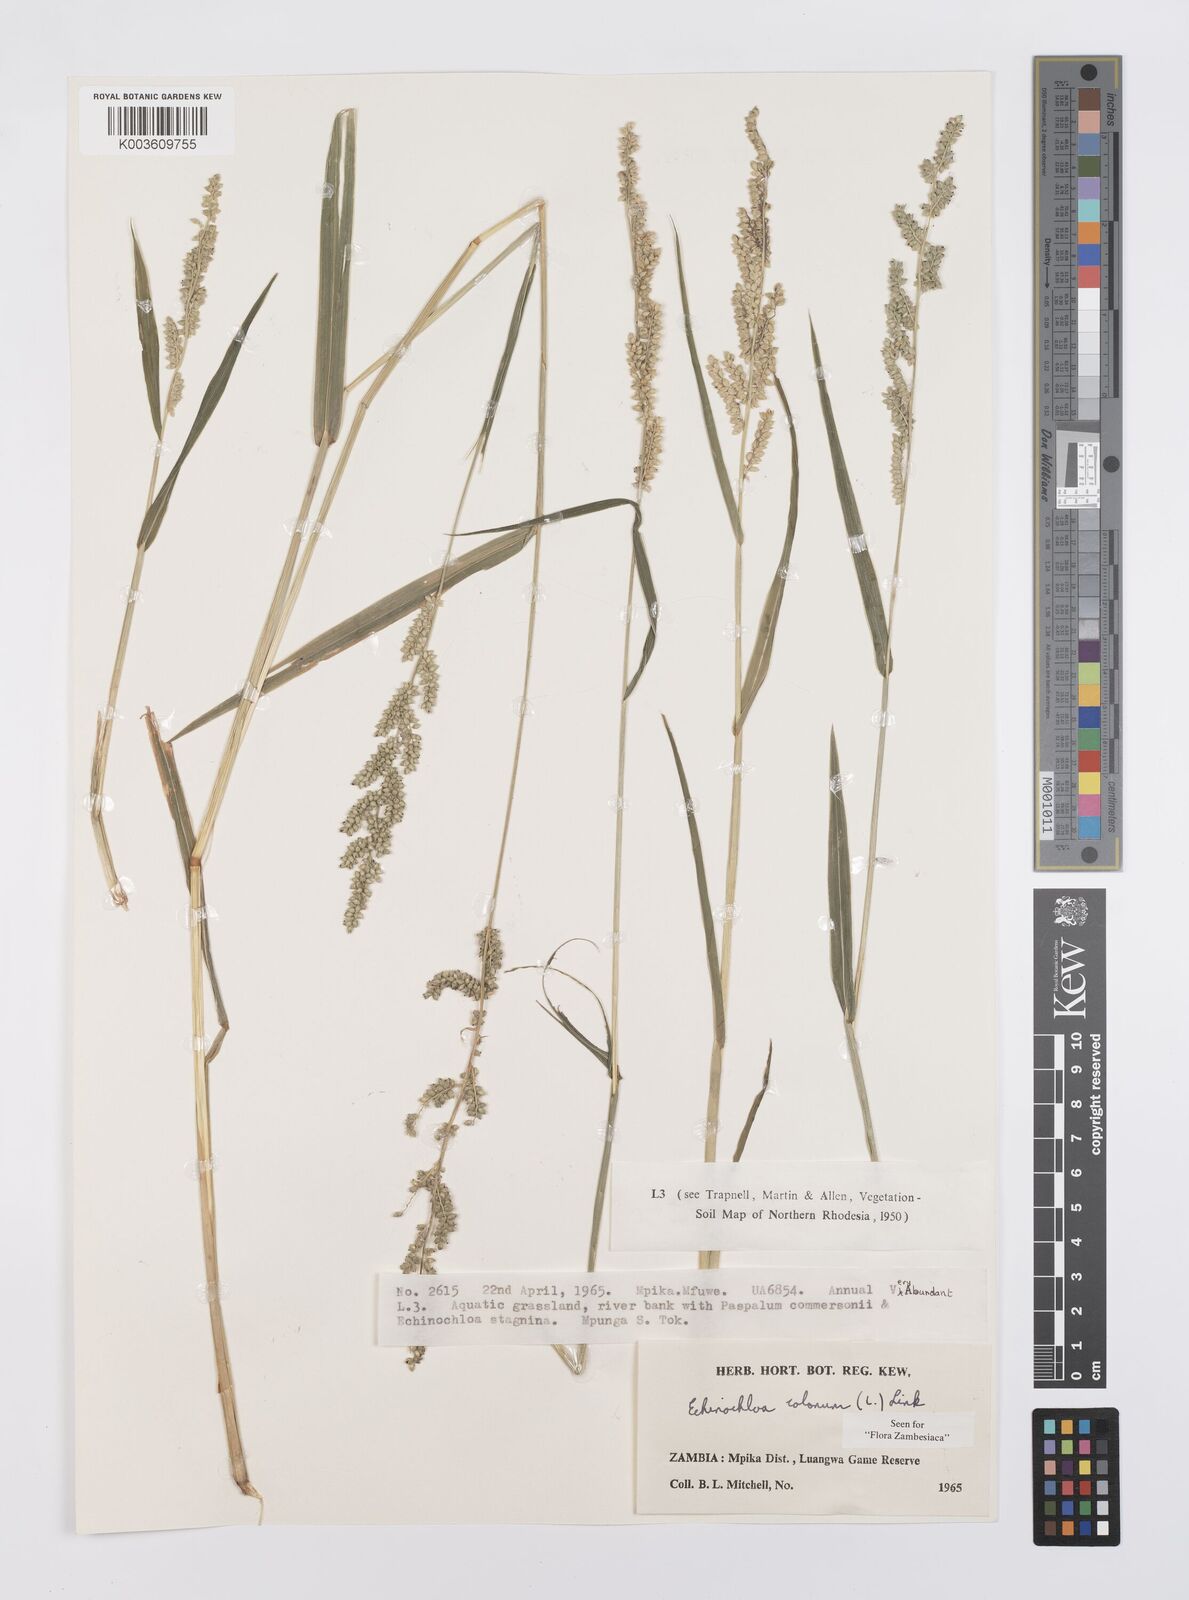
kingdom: Plantae
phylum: Tracheophyta
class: Liliopsida
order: Poales
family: Poaceae
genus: Echinochloa
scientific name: Echinochloa colonum
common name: Jungle rice
